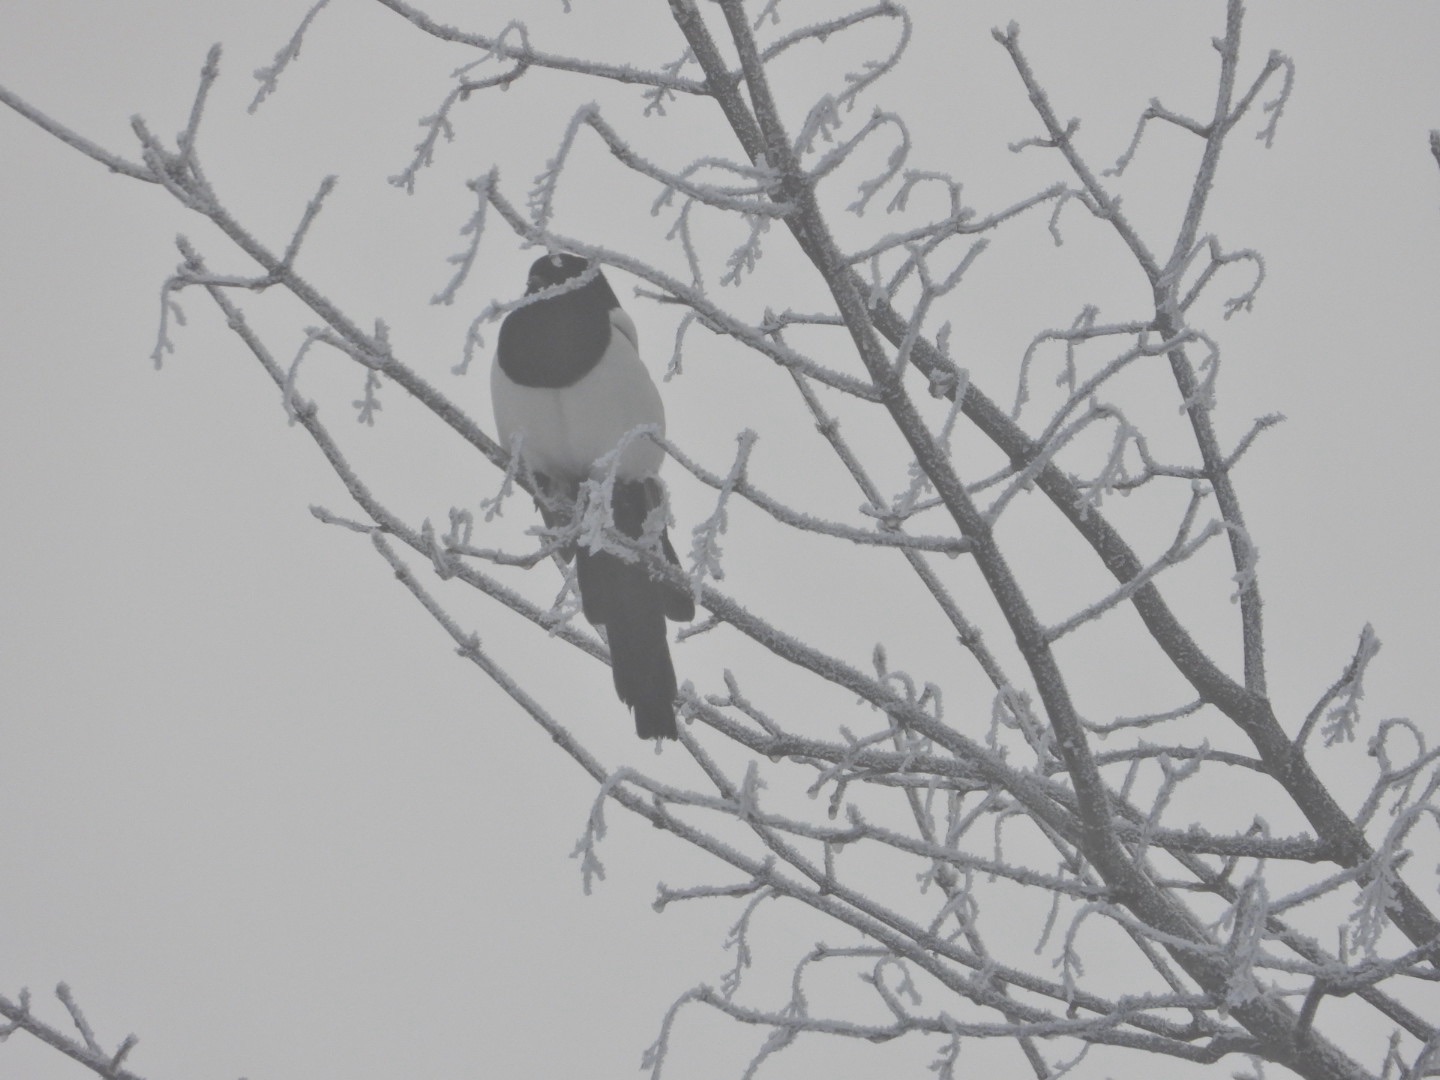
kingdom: Animalia
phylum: Chordata
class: Aves
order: Passeriformes
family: Corvidae
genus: Pica
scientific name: Pica pica
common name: Husskade
